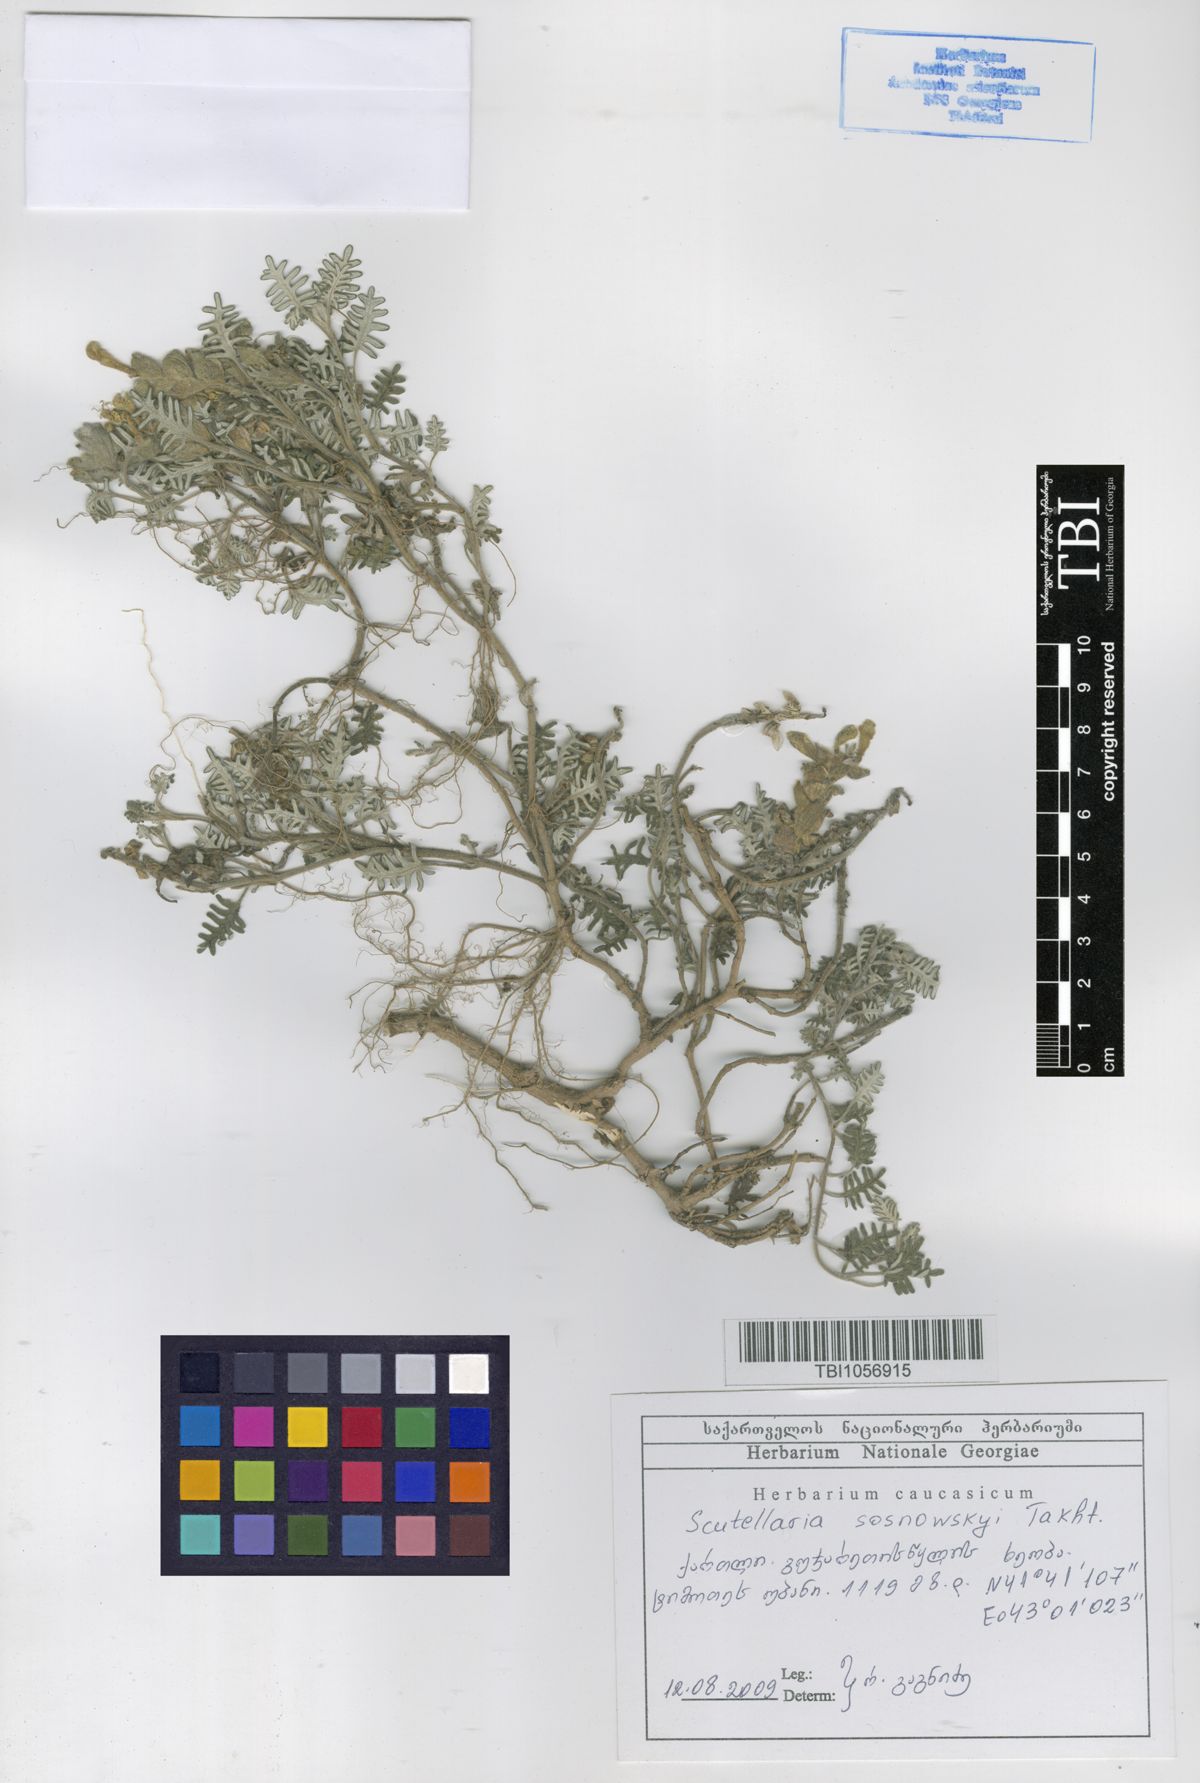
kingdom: Plantae
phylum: Tracheophyta
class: Magnoliopsida
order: Lamiales
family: Lamiaceae
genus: Scutellaria
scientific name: Scutellaria sosnowskyi
